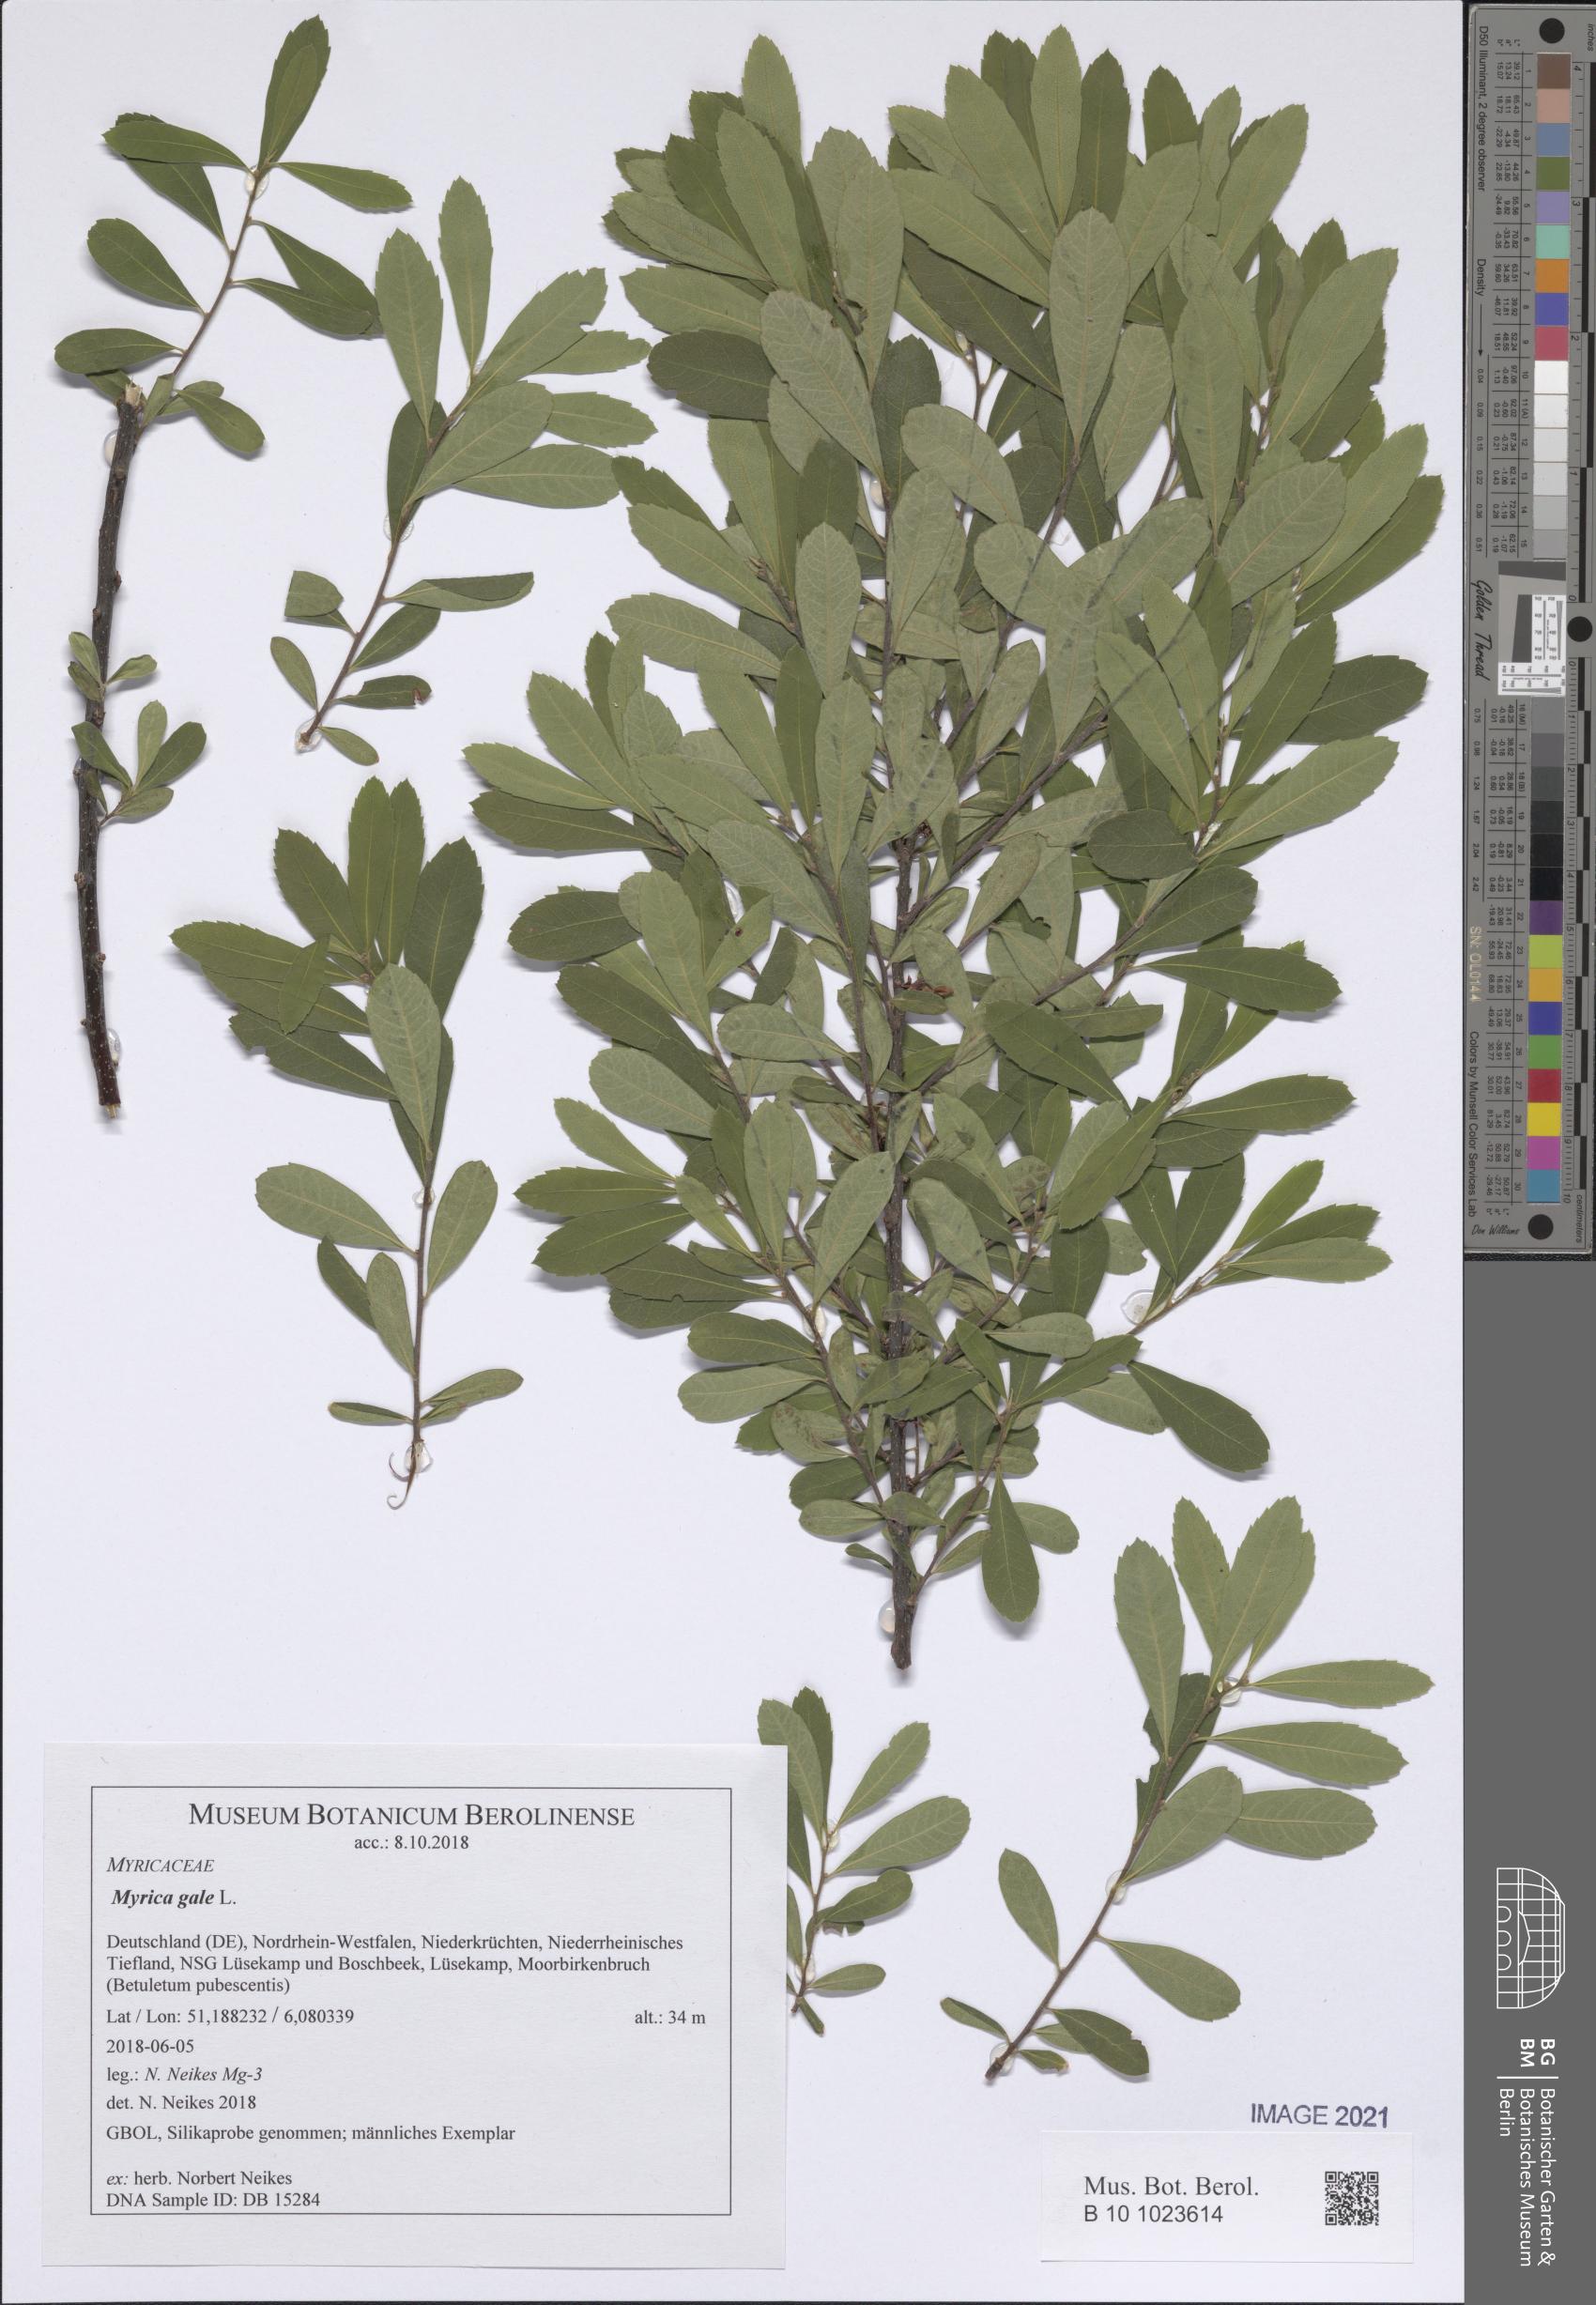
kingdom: Plantae
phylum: Tracheophyta
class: Magnoliopsida
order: Fagales
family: Myricaceae
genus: Myrica
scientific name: Myrica gale
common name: Sweet gale
